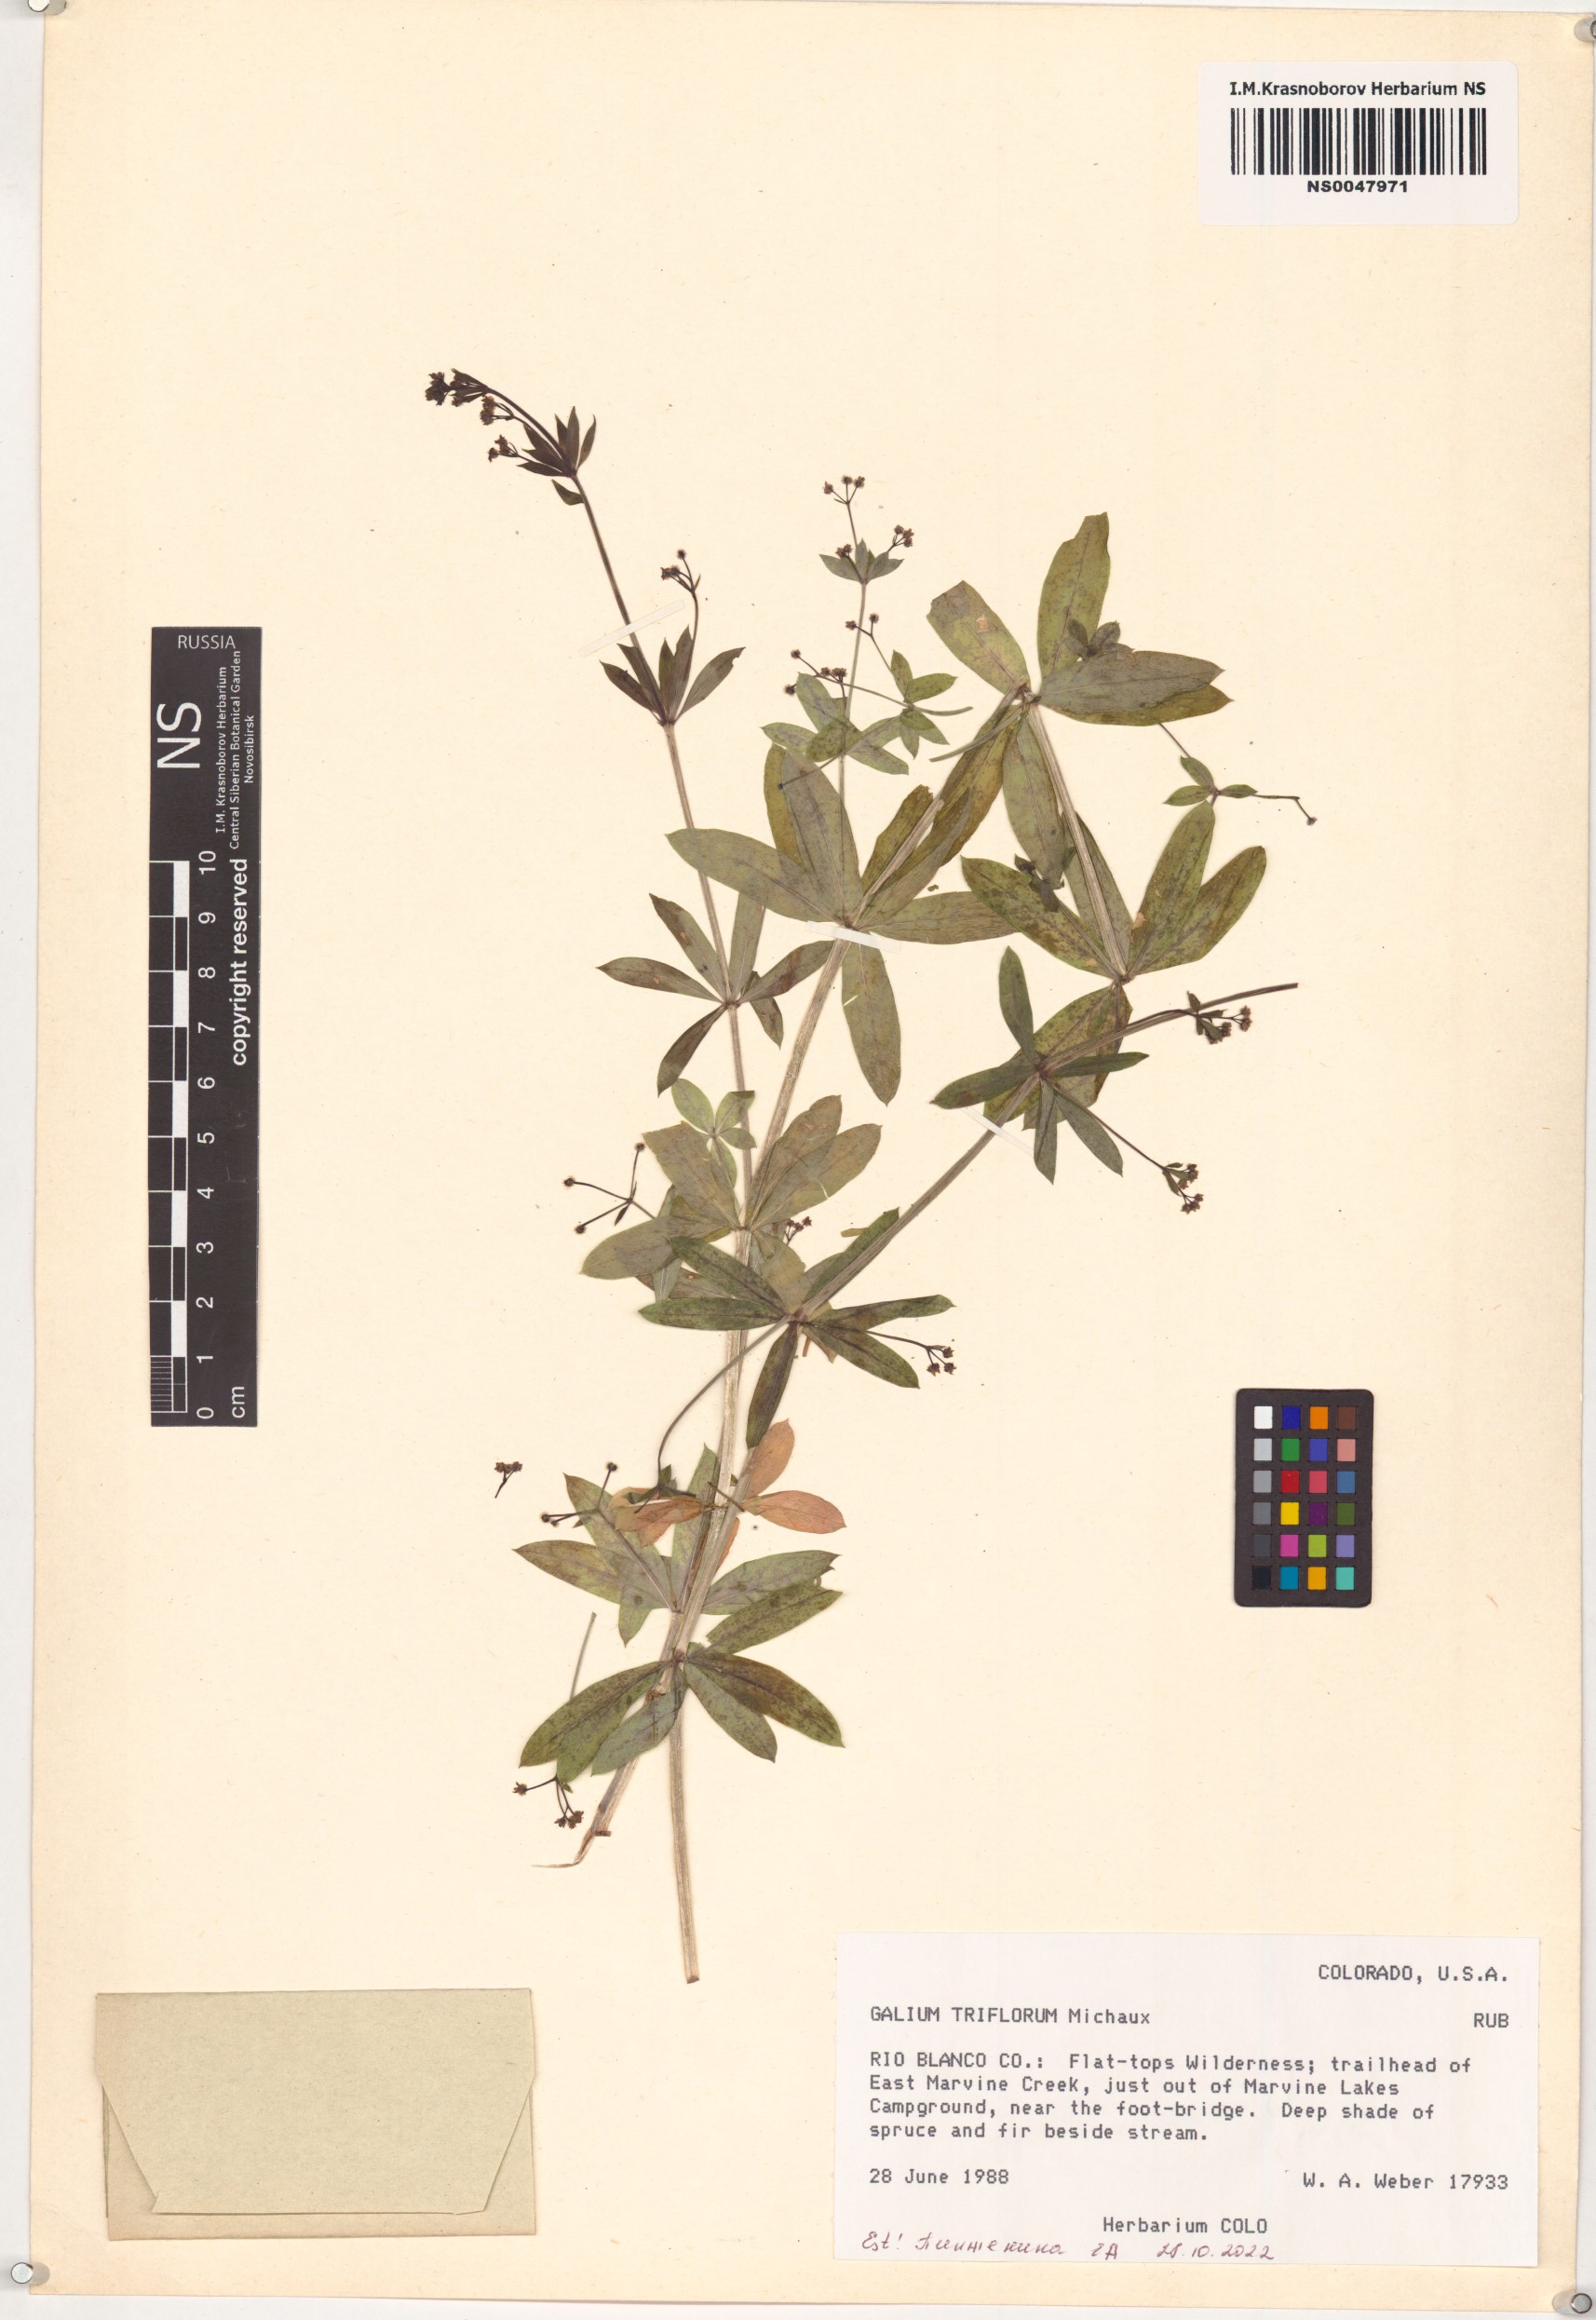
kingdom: Plantae
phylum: Tracheophyta
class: Magnoliopsida
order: Gentianales
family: Rubiaceae
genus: Galium
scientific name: Galium triflorum
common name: Fragrant bedstraw
